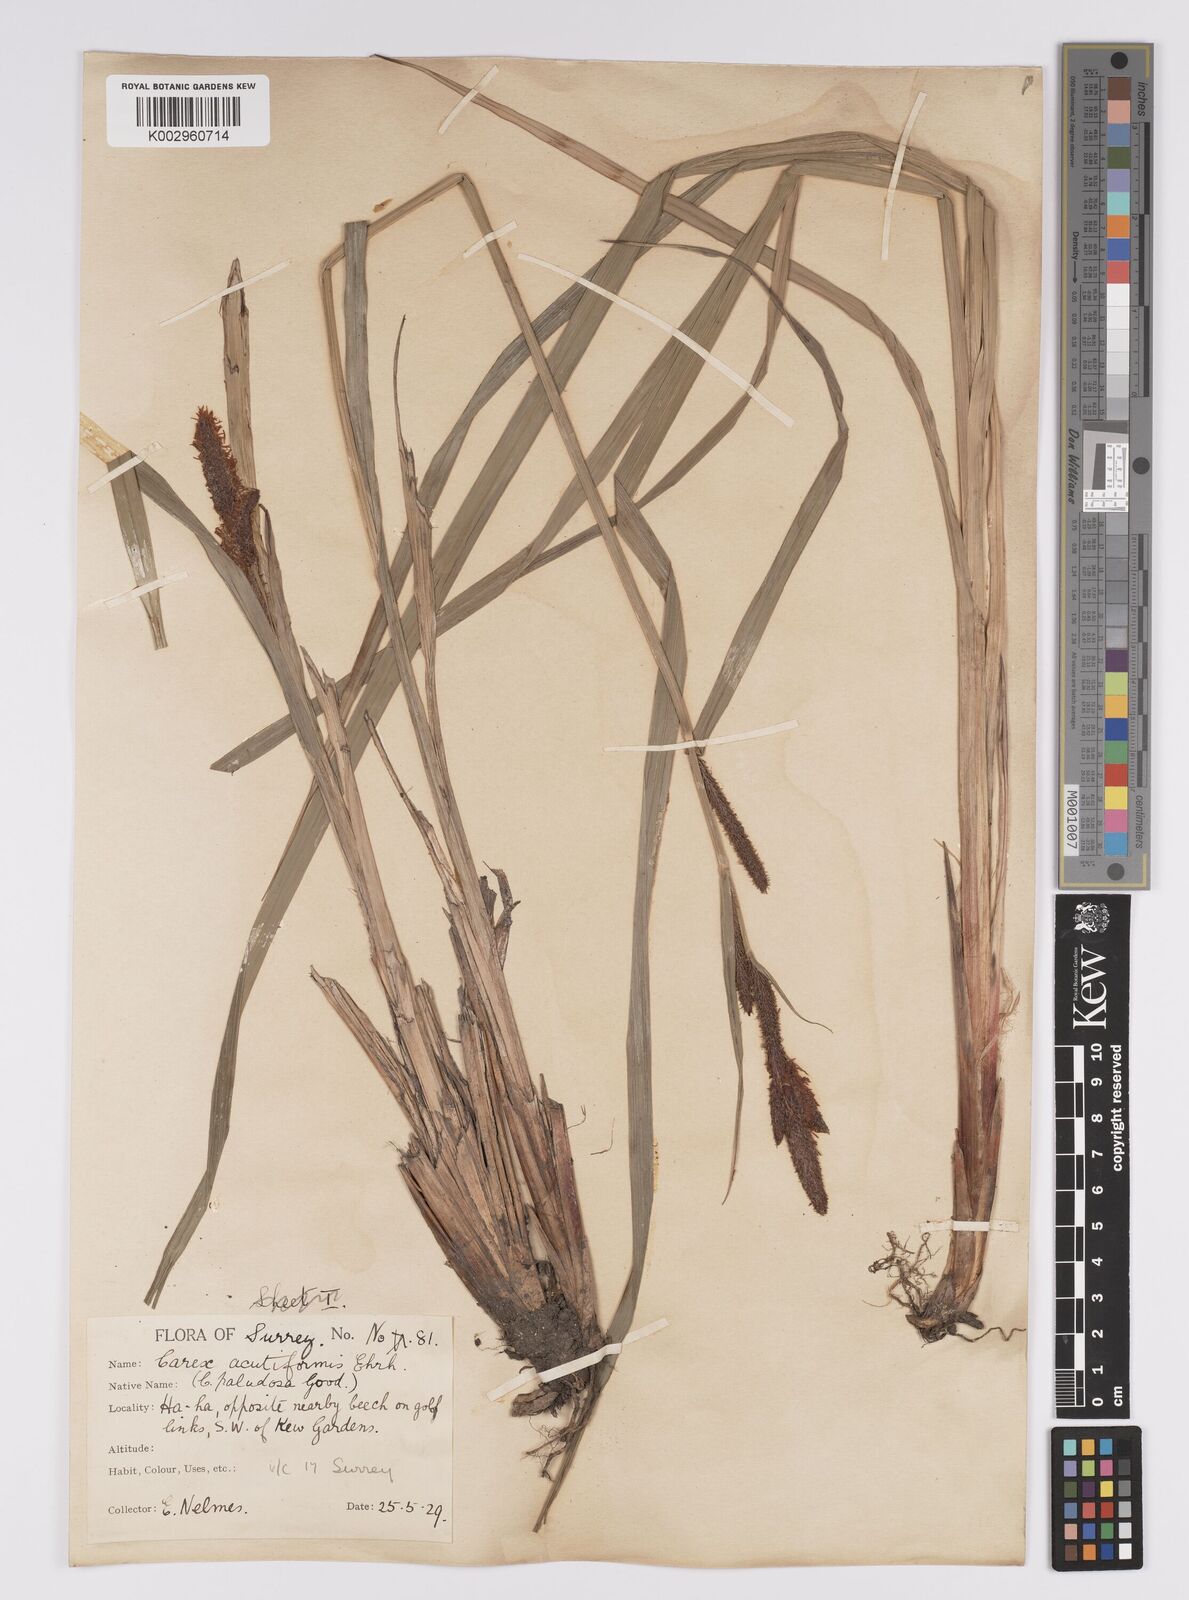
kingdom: Plantae
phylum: Tracheophyta
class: Liliopsida
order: Poales
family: Cyperaceae
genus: Carex
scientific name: Carex acutiformis
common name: Lesser pond-sedge
